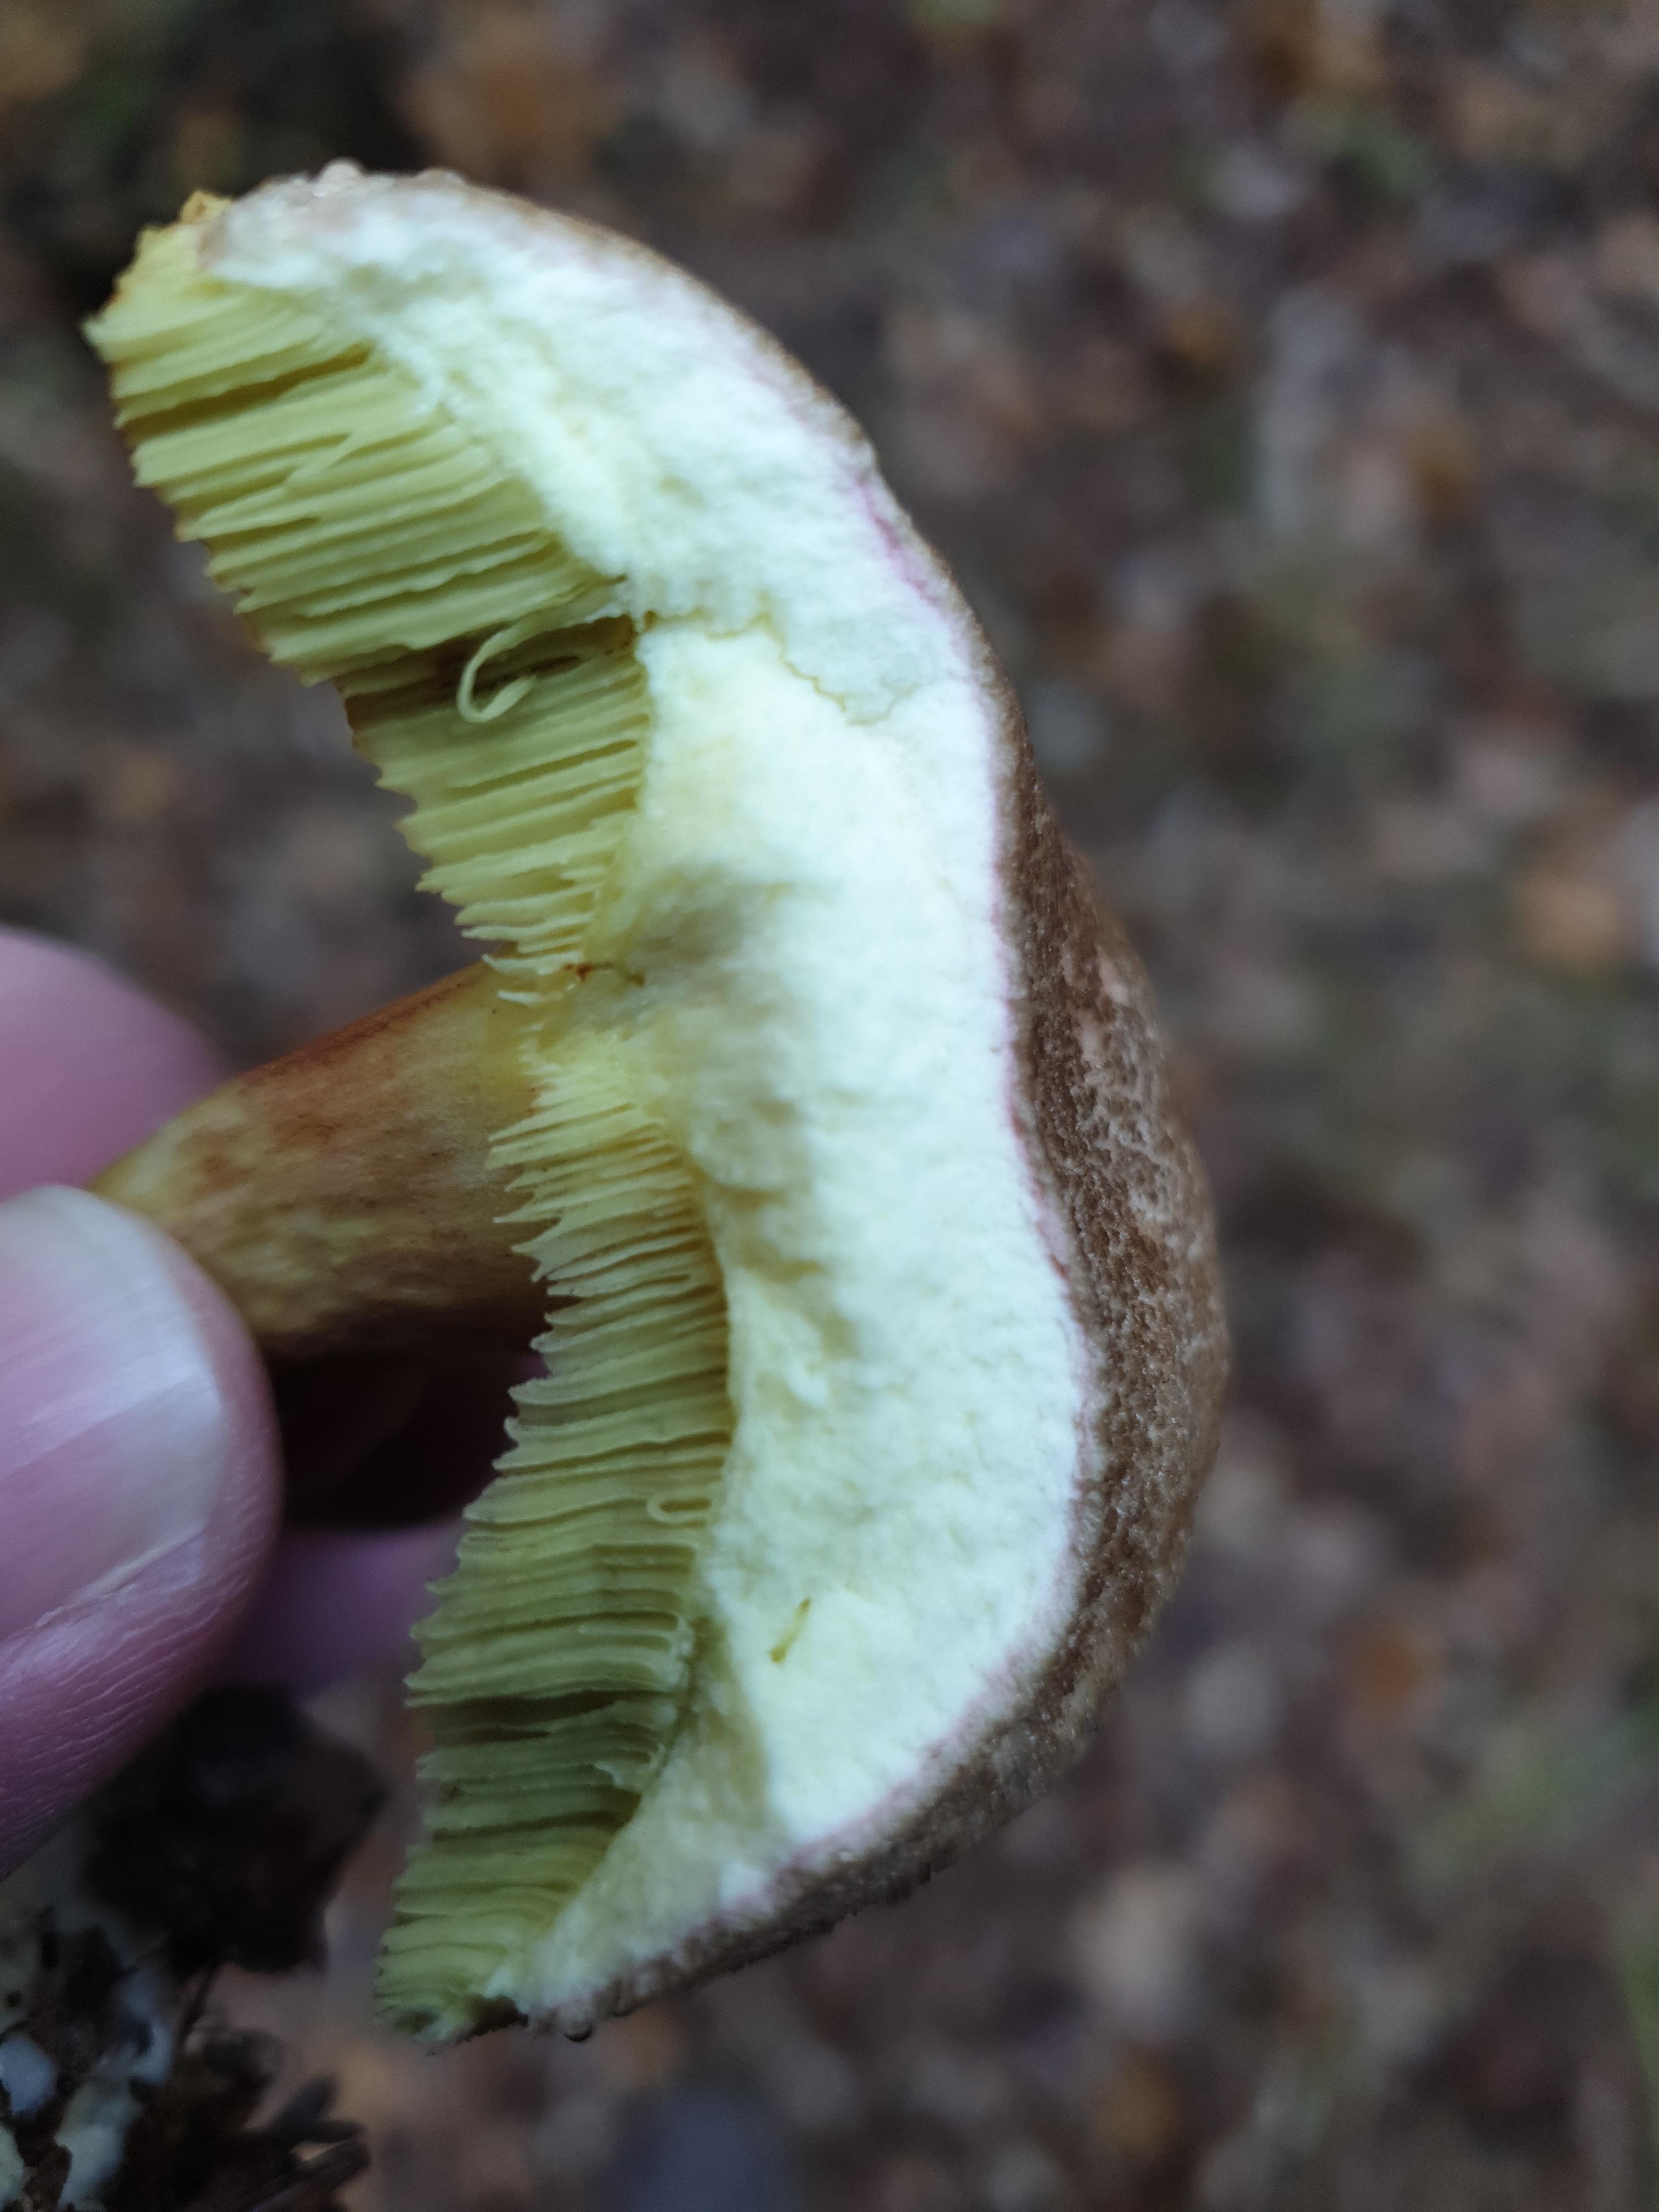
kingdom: Fungi
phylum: Basidiomycota
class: Agaricomycetes
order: Boletales
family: Boletaceae
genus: Xerocomellus
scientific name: Xerocomellus chrysenteron
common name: rødsprukken rørhat
